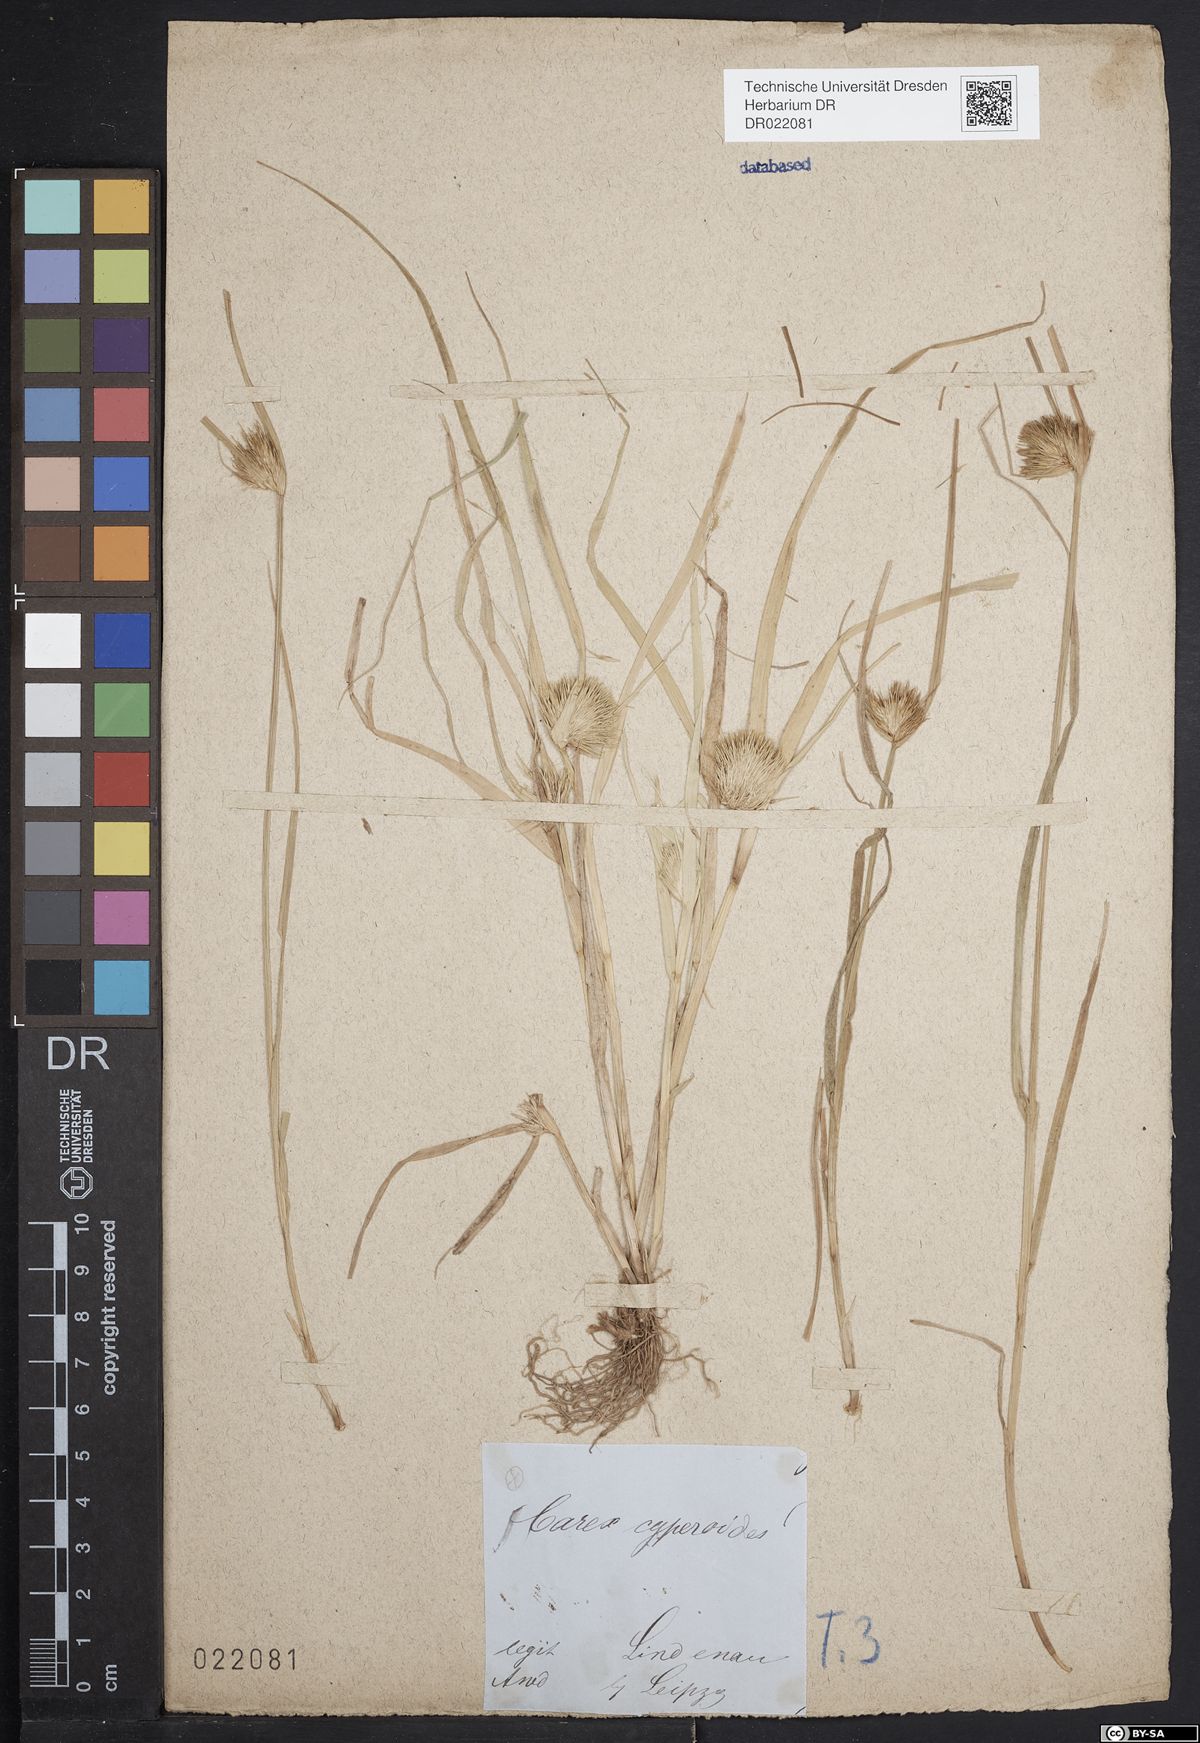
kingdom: Plantae
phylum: Tracheophyta
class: Liliopsida
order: Poales
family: Cyperaceae
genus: Carex
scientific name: Carex bohemica
